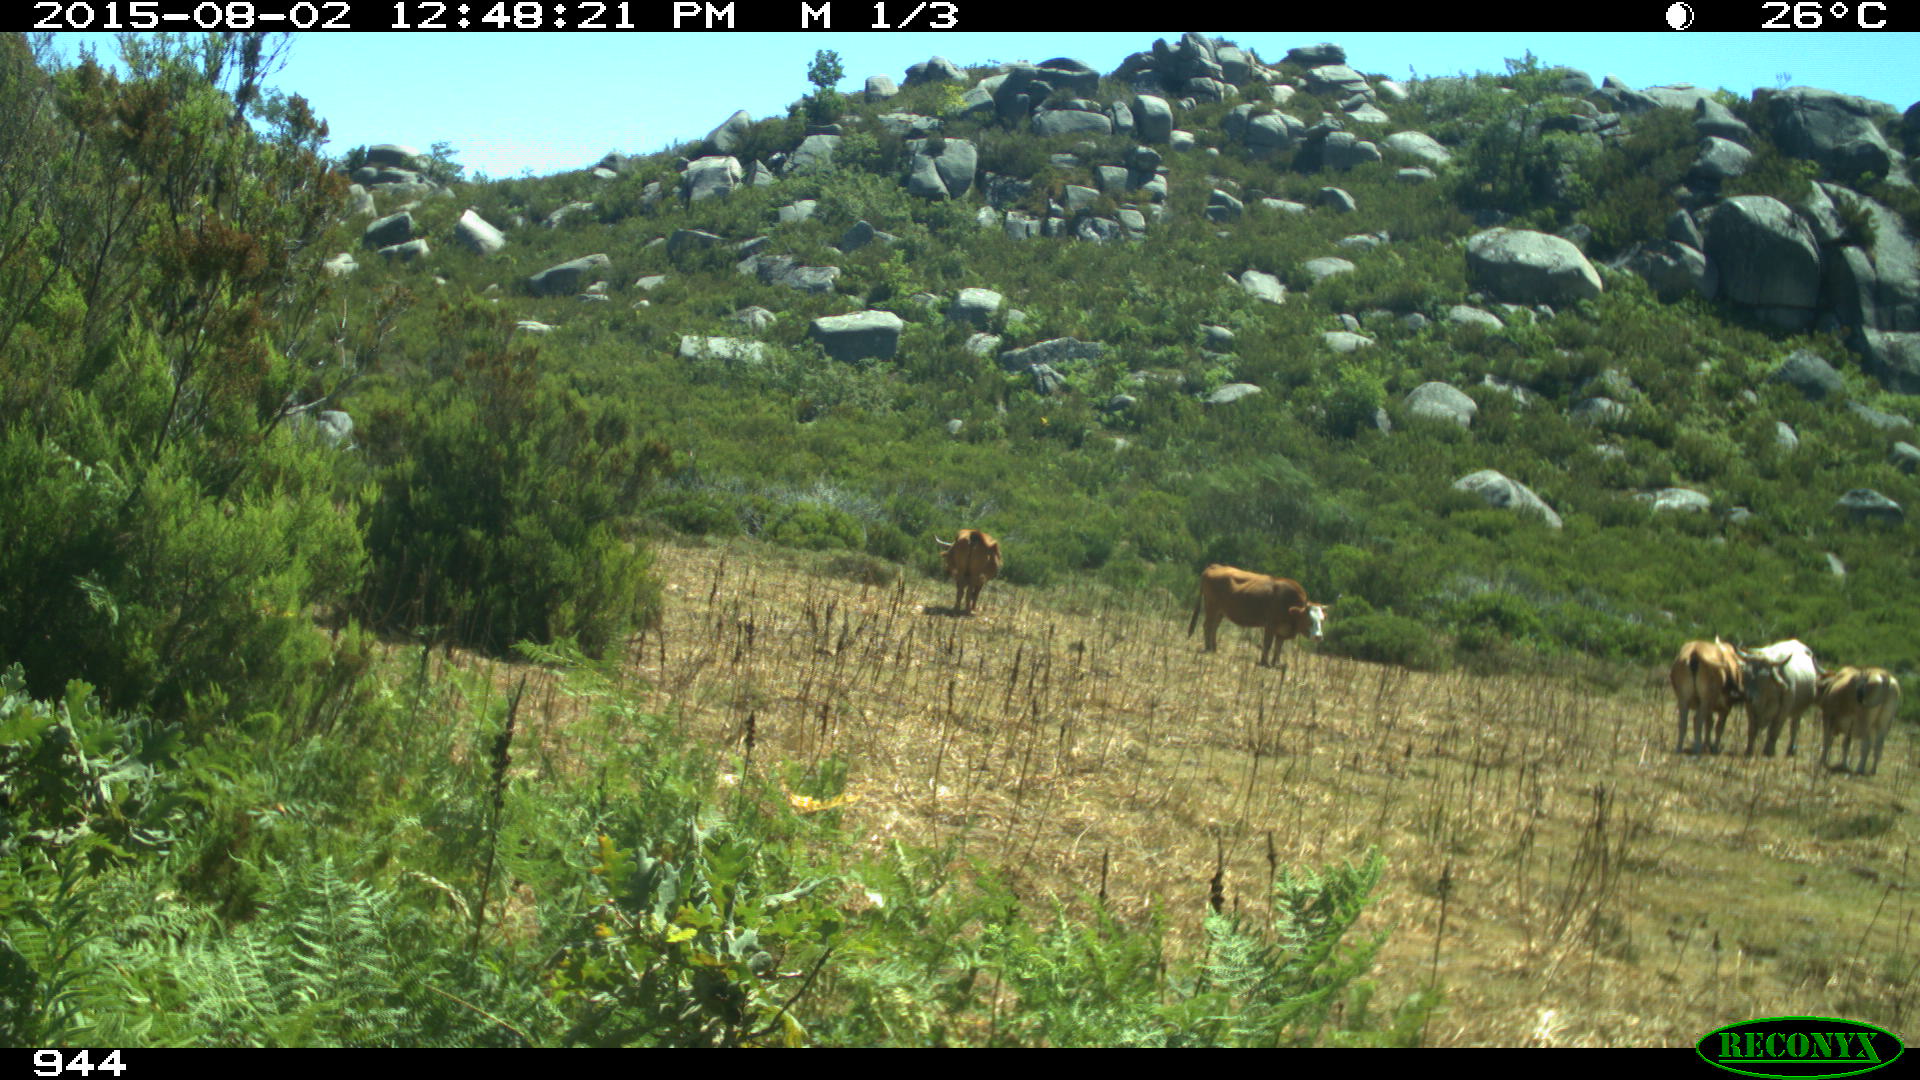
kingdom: Animalia
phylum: Chordata
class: Mammalia
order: Artiodactyla
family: Bovidae
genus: Bos
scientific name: Bos taurus
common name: Domesticated cattle
